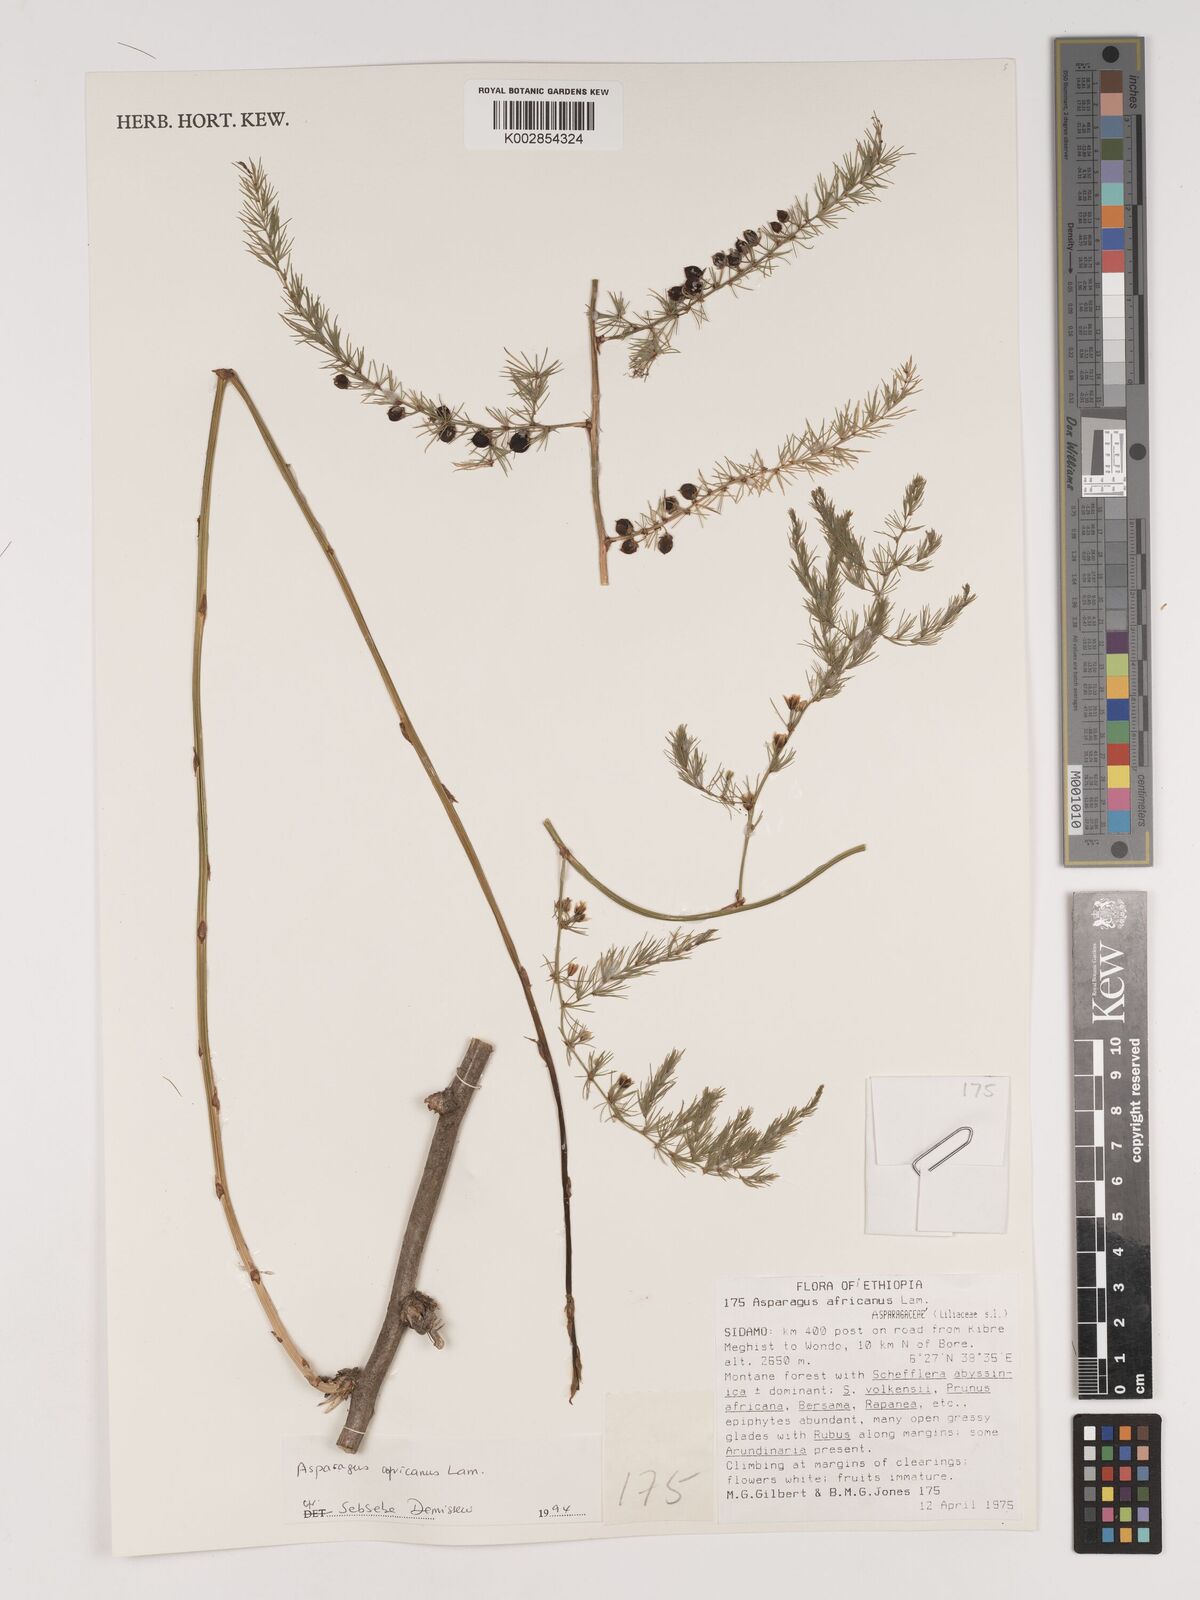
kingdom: Plantae
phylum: Tracheophyta
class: Liliopsida
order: Asparagales
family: Asparagaceae
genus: Asparagus
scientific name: Asparagus africanus
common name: Asparagus-fern
